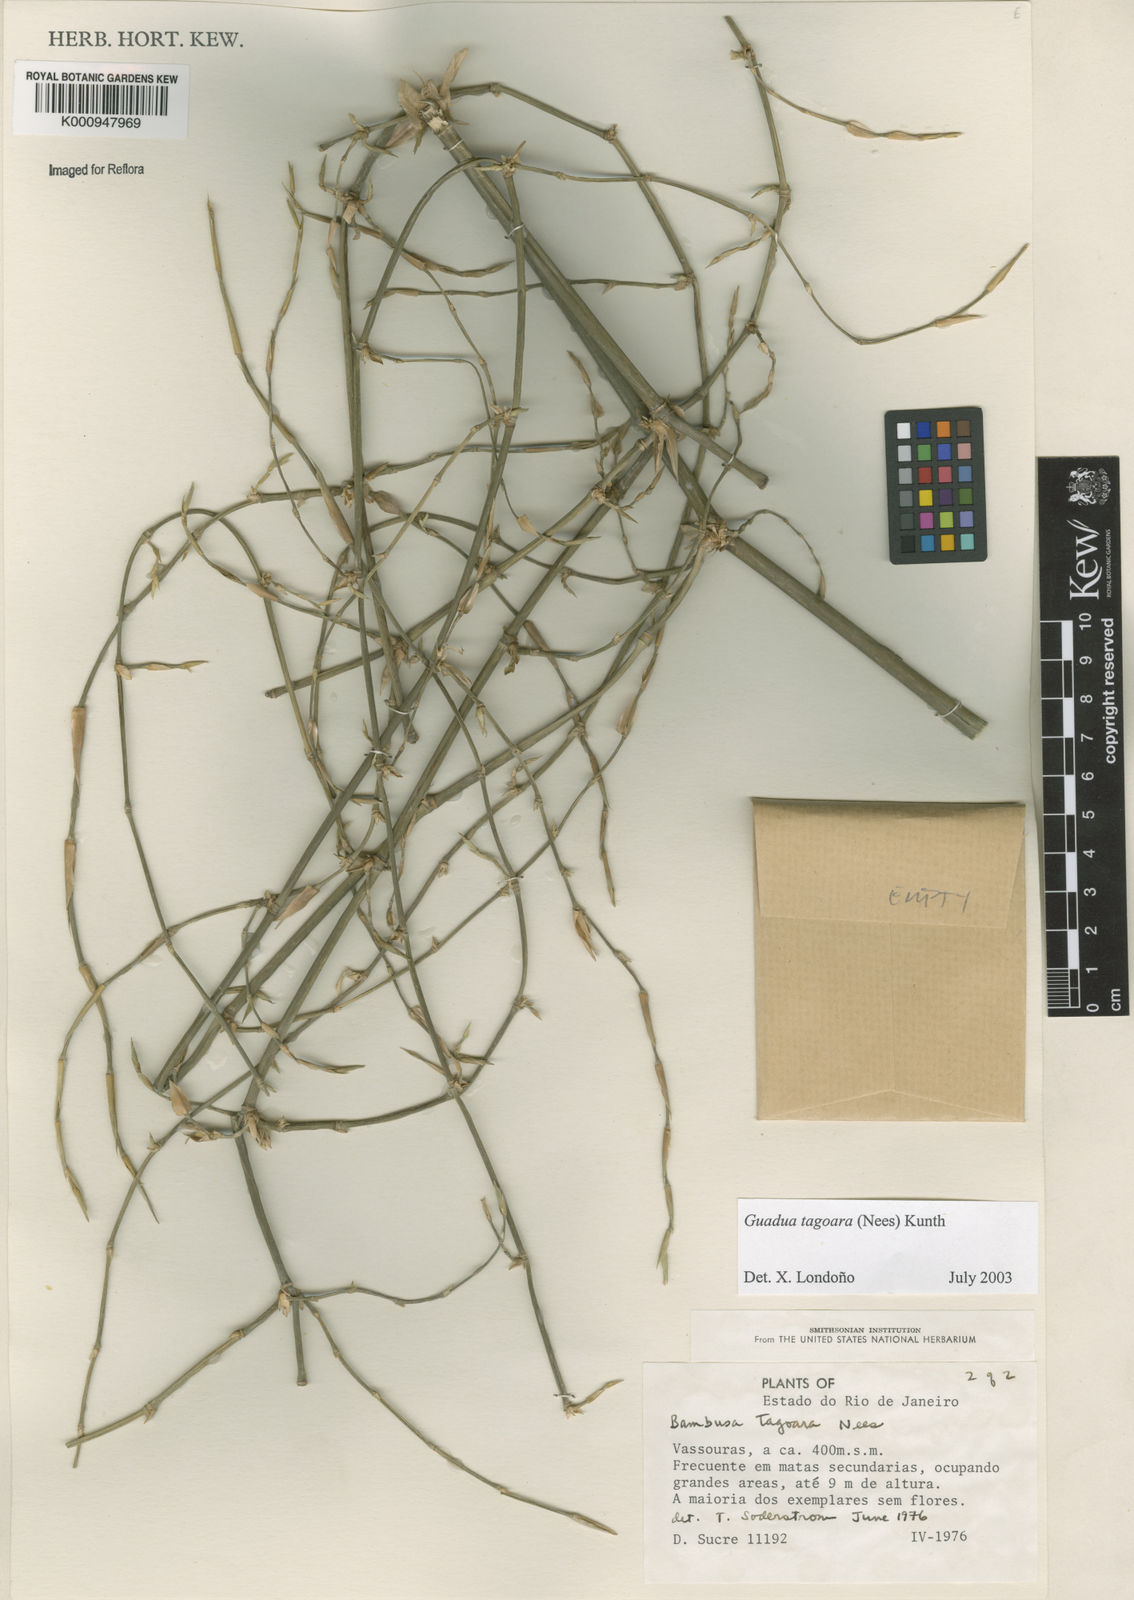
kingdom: Plantae
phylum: Tracheophyta
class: Liliopsida
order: Poales
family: Poaceae
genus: Guadua
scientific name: Guadua tagoara
